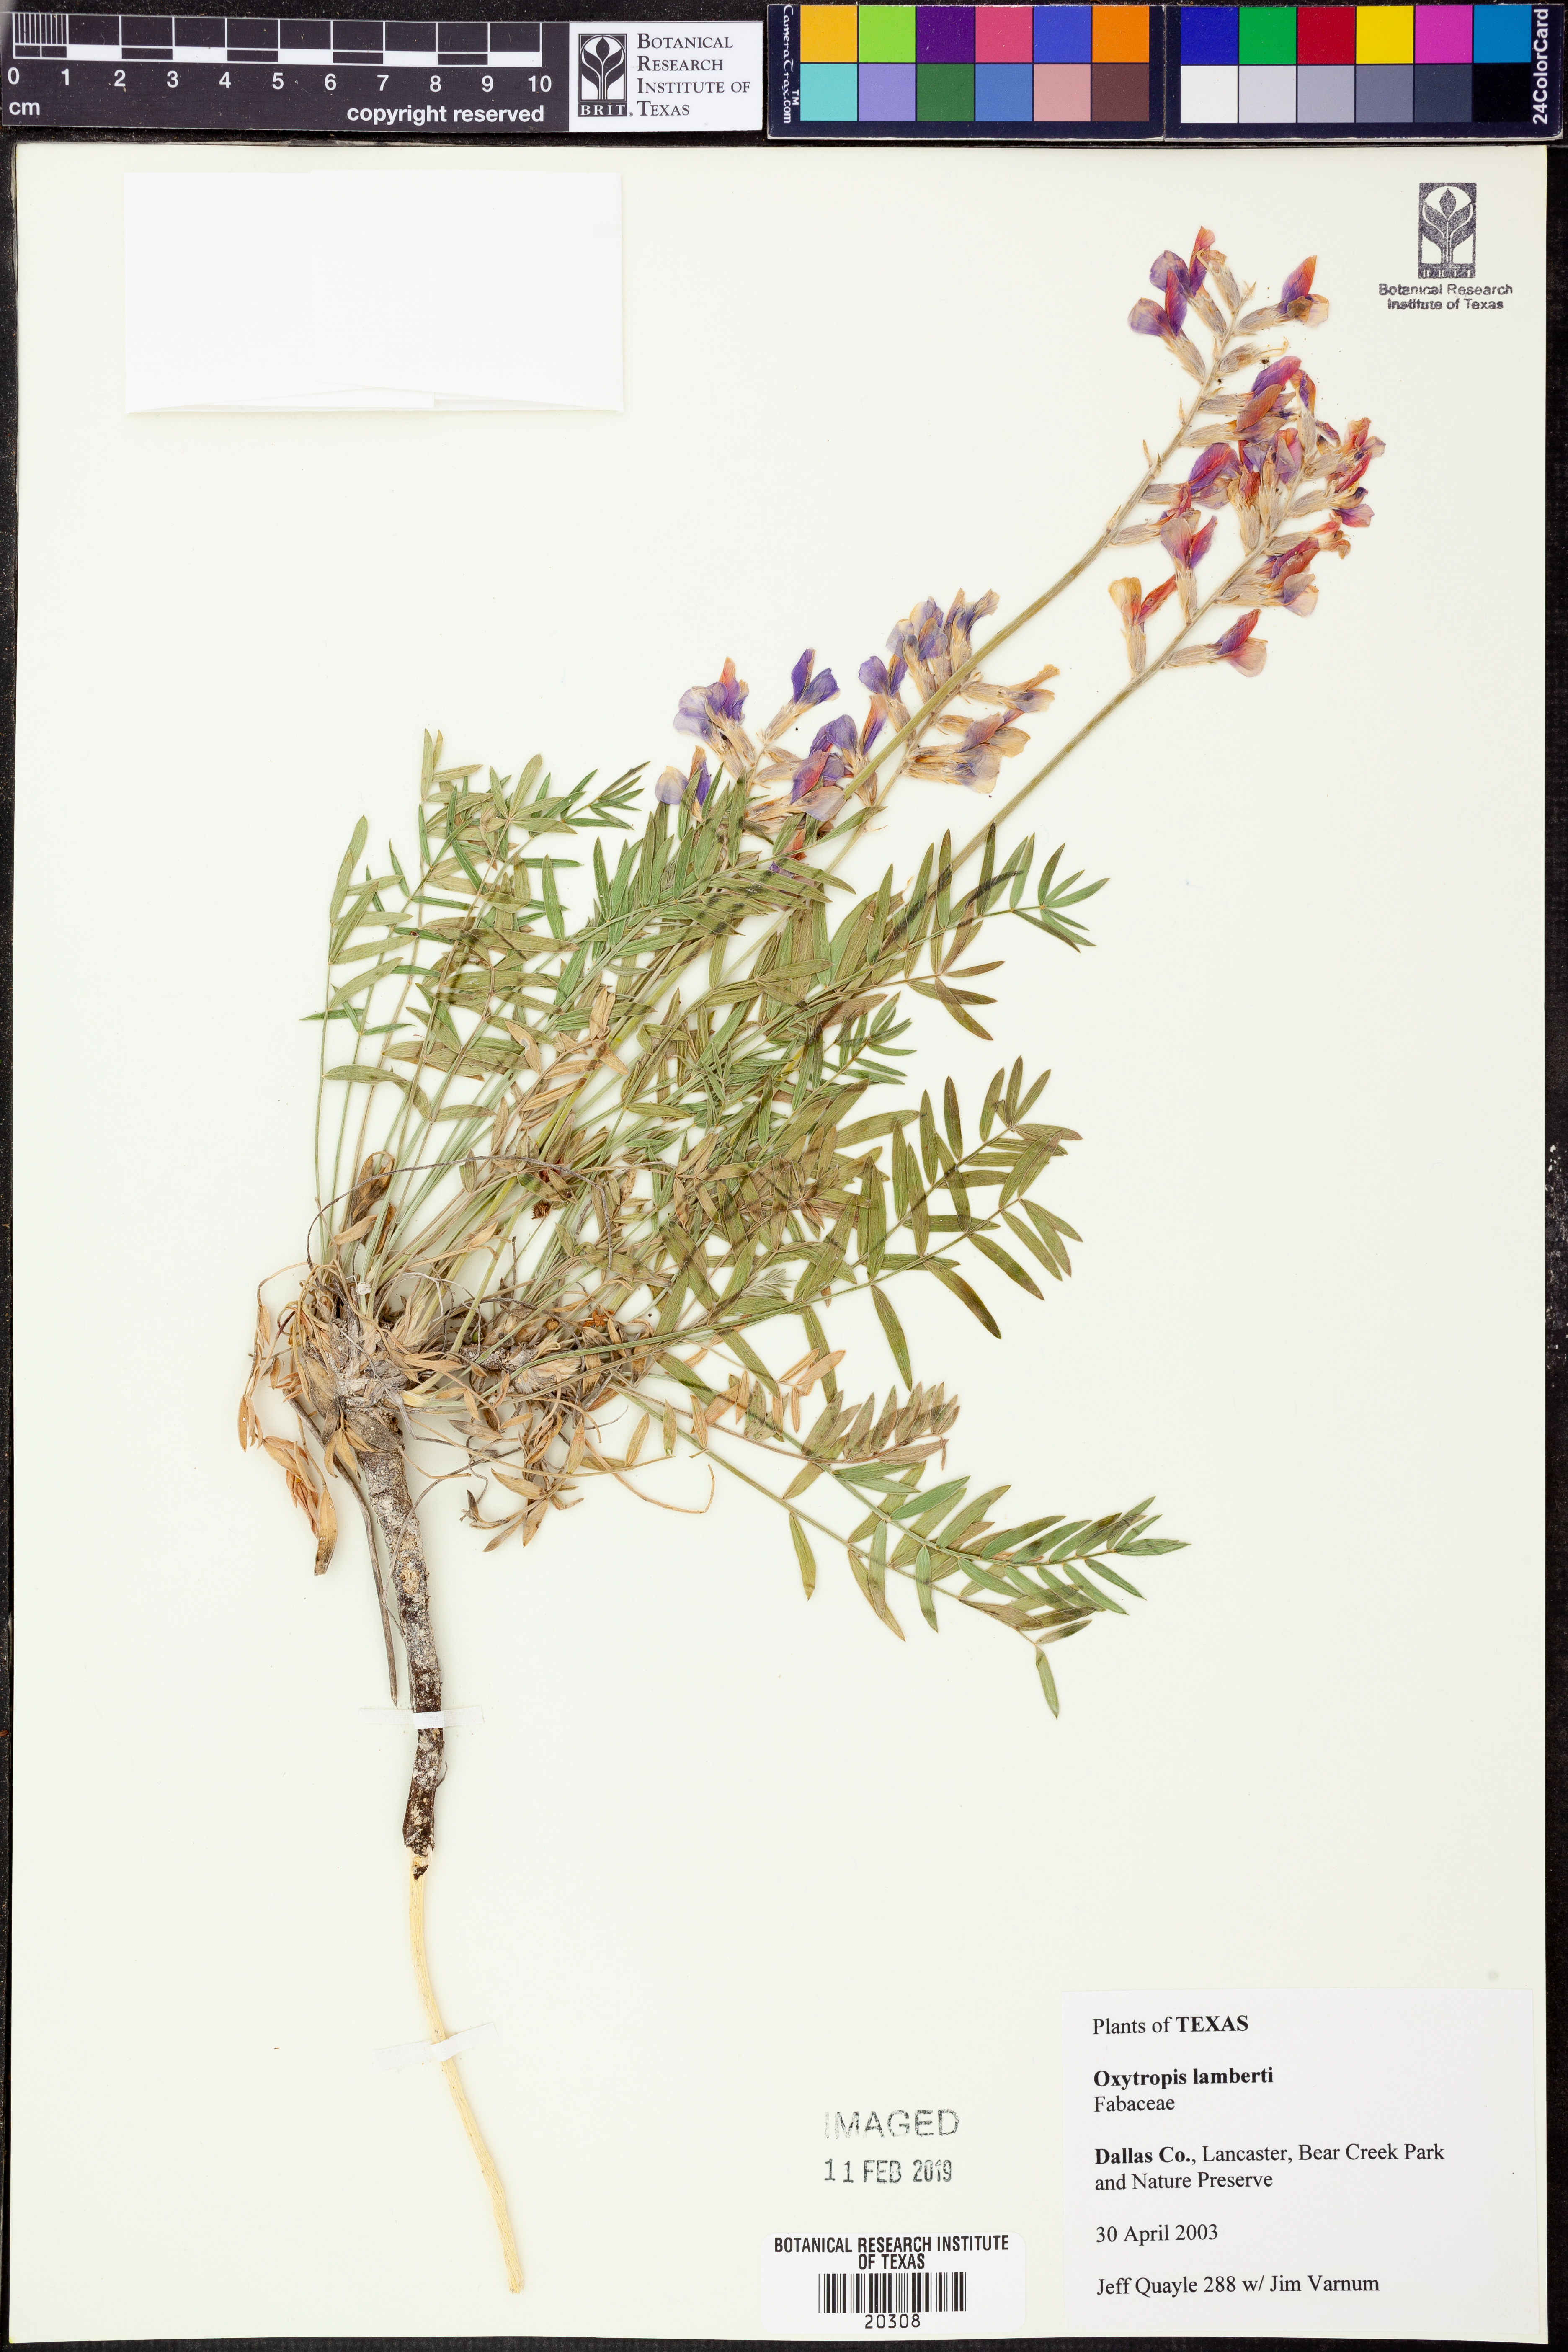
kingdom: Plantae
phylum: Tracheophyta
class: Magnoliopsida
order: Fabales
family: Fabaceae
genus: Oxytropis
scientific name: Oxytropis lambertii
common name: Purple locoweed
